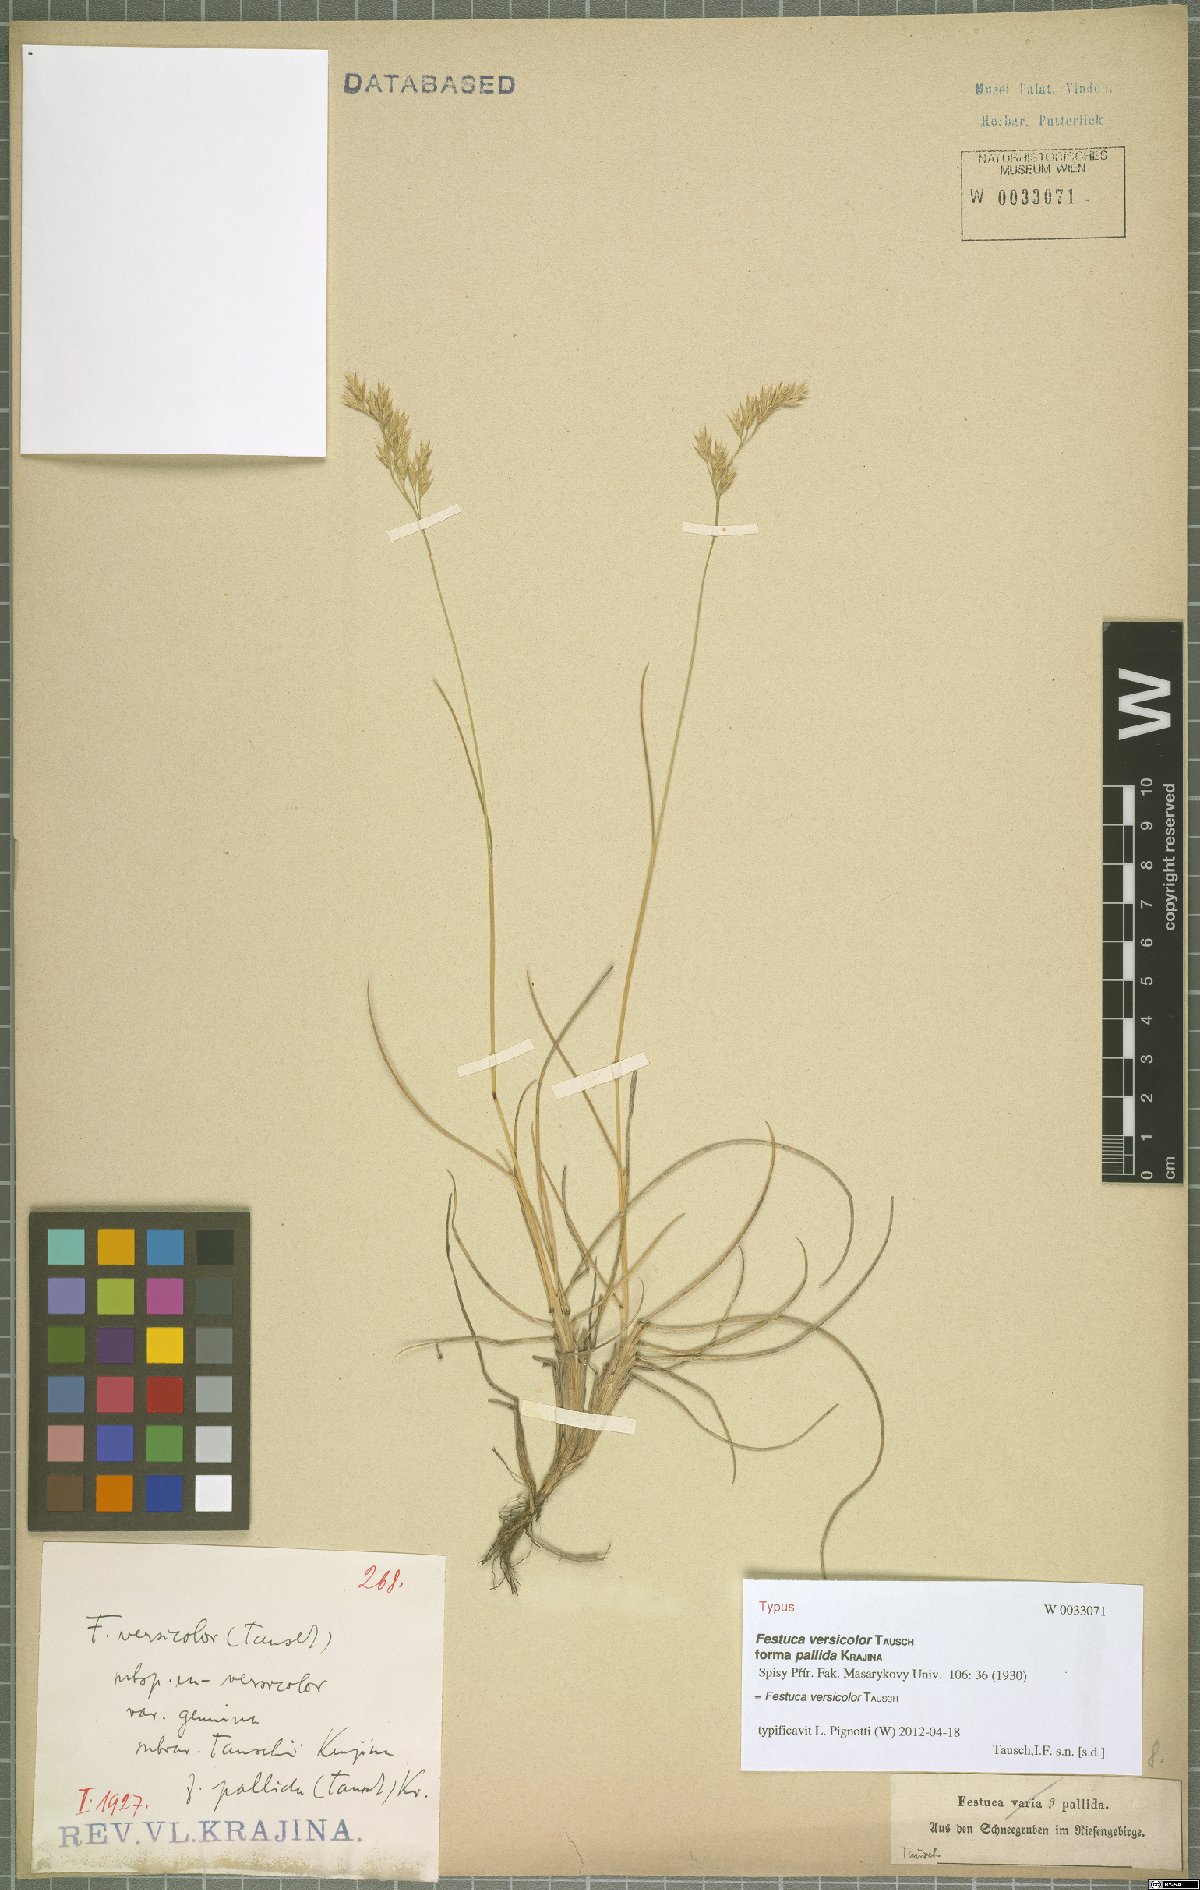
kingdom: Plantae
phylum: Tracheophyta
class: Liliopsida
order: Poales
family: Poaceae
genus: Festuca
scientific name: Festuca versicolor
